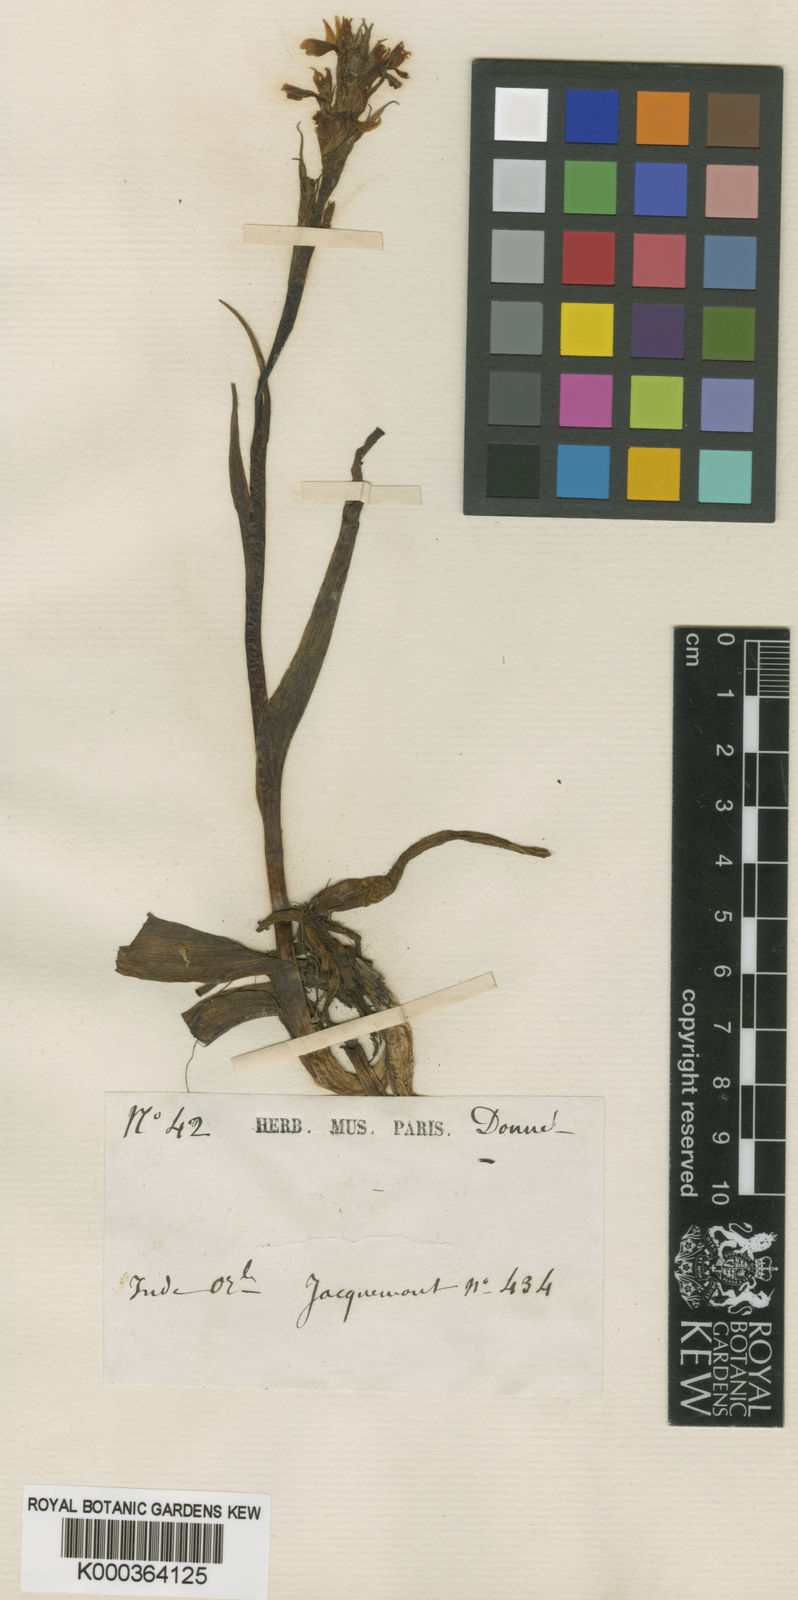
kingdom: Plantae
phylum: Tracheophyta
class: Liliopsida
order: Asparagales
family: Orchidaceae
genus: Orchis
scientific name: Orchis
